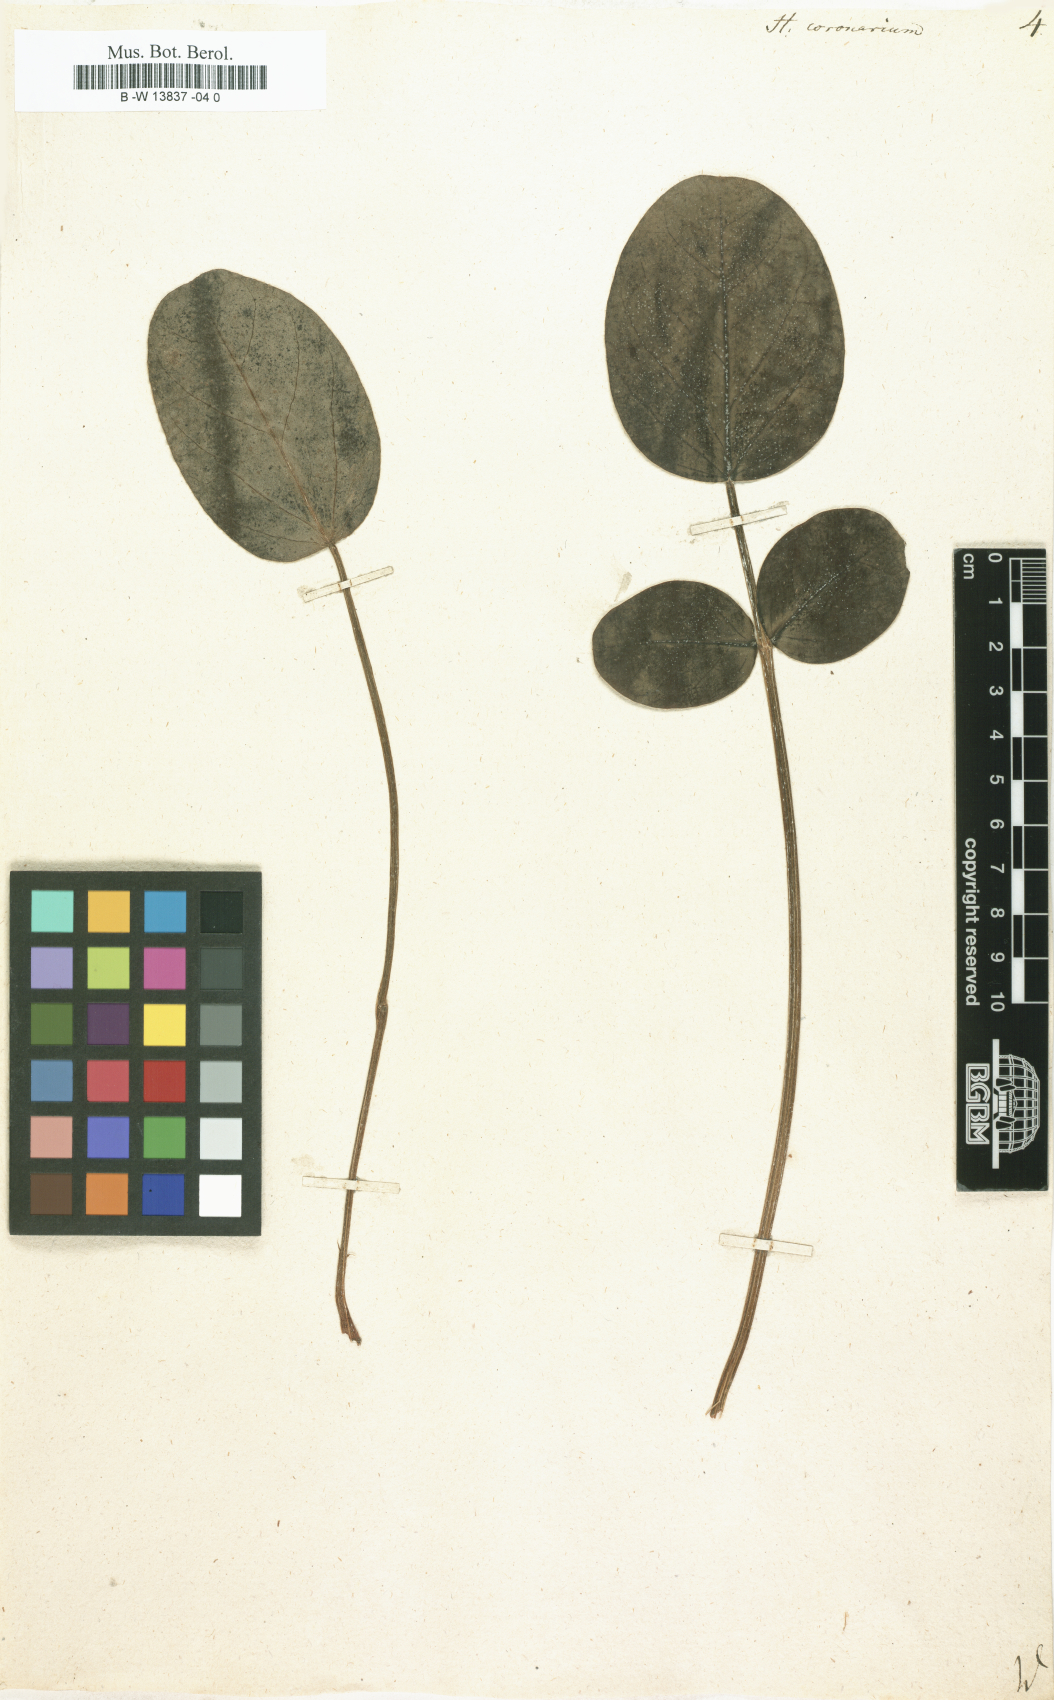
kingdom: Plantae
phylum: Tracheophyta
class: Magnoliopsida
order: Fabales
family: Fabaceae
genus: Sulla
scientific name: Sulla coronaria
